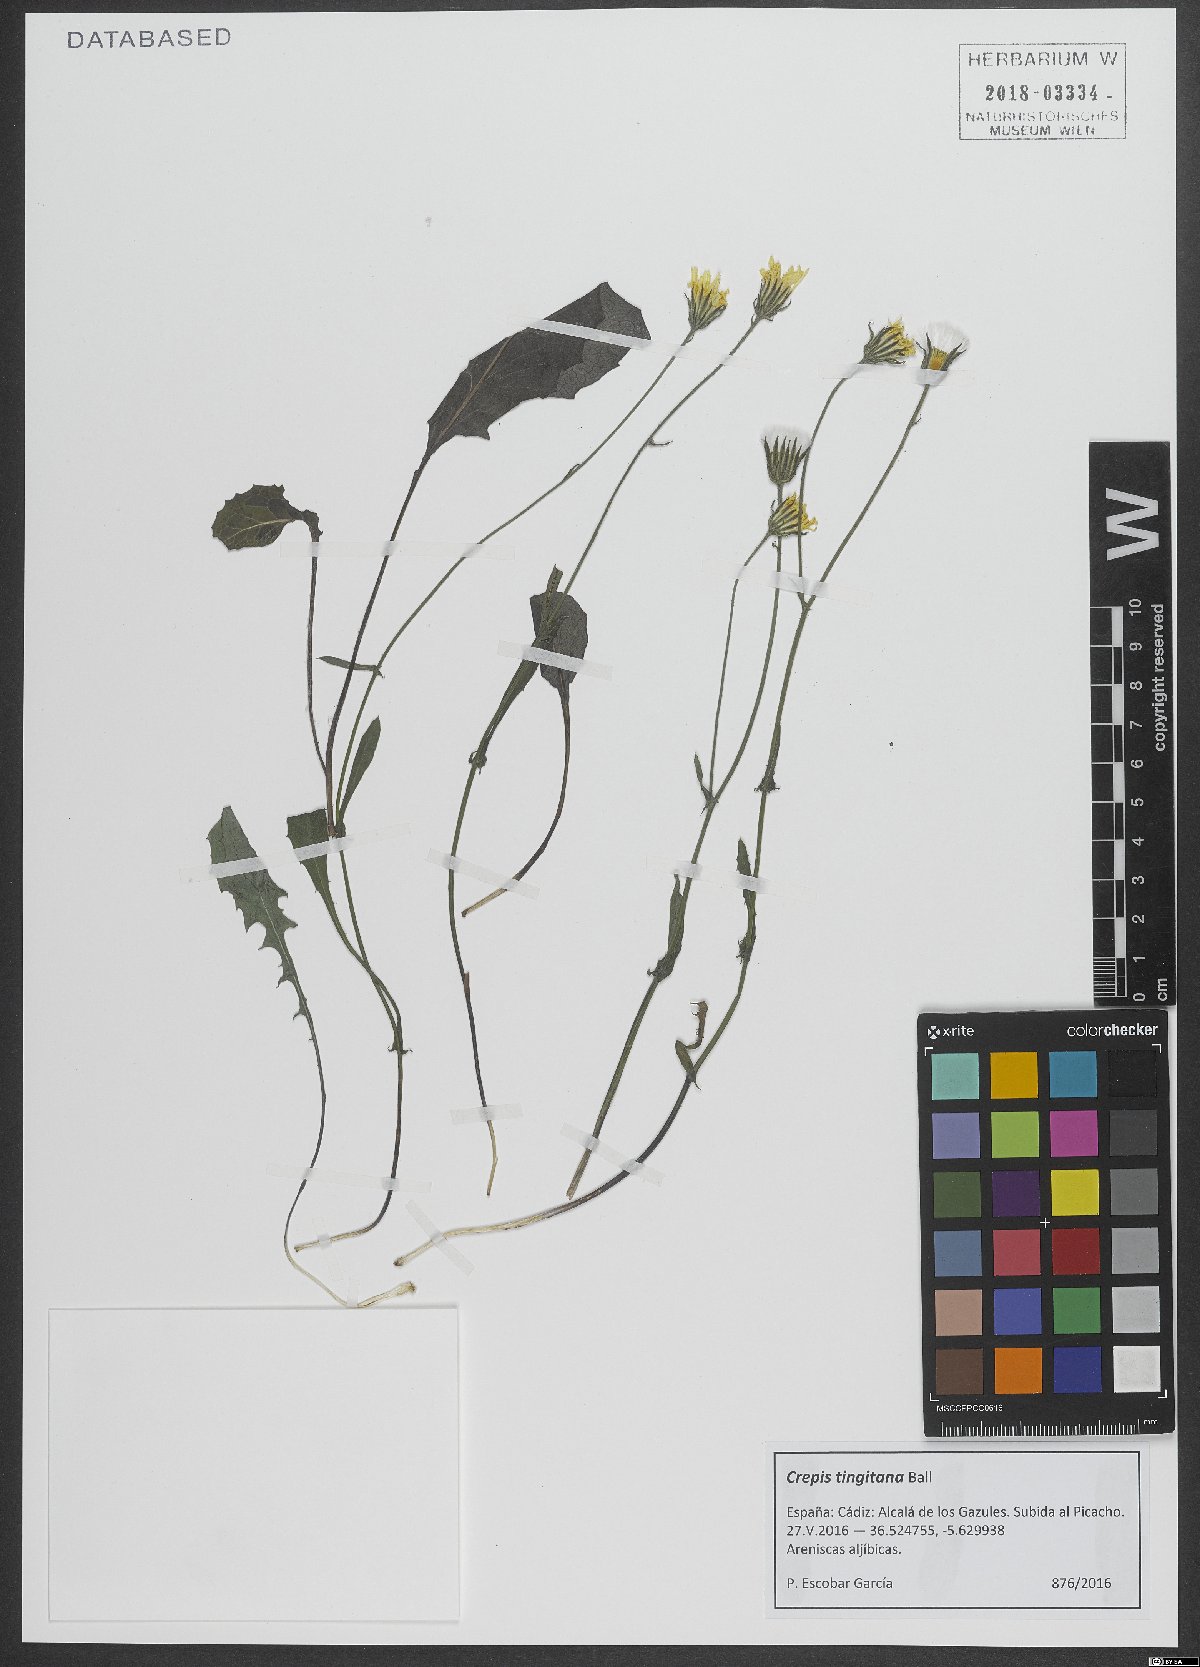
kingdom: Plantae
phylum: Tracheophyta
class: Magnoliopsida
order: Asterales
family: Asteraceae
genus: Crepis
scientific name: Crepis tingitana
